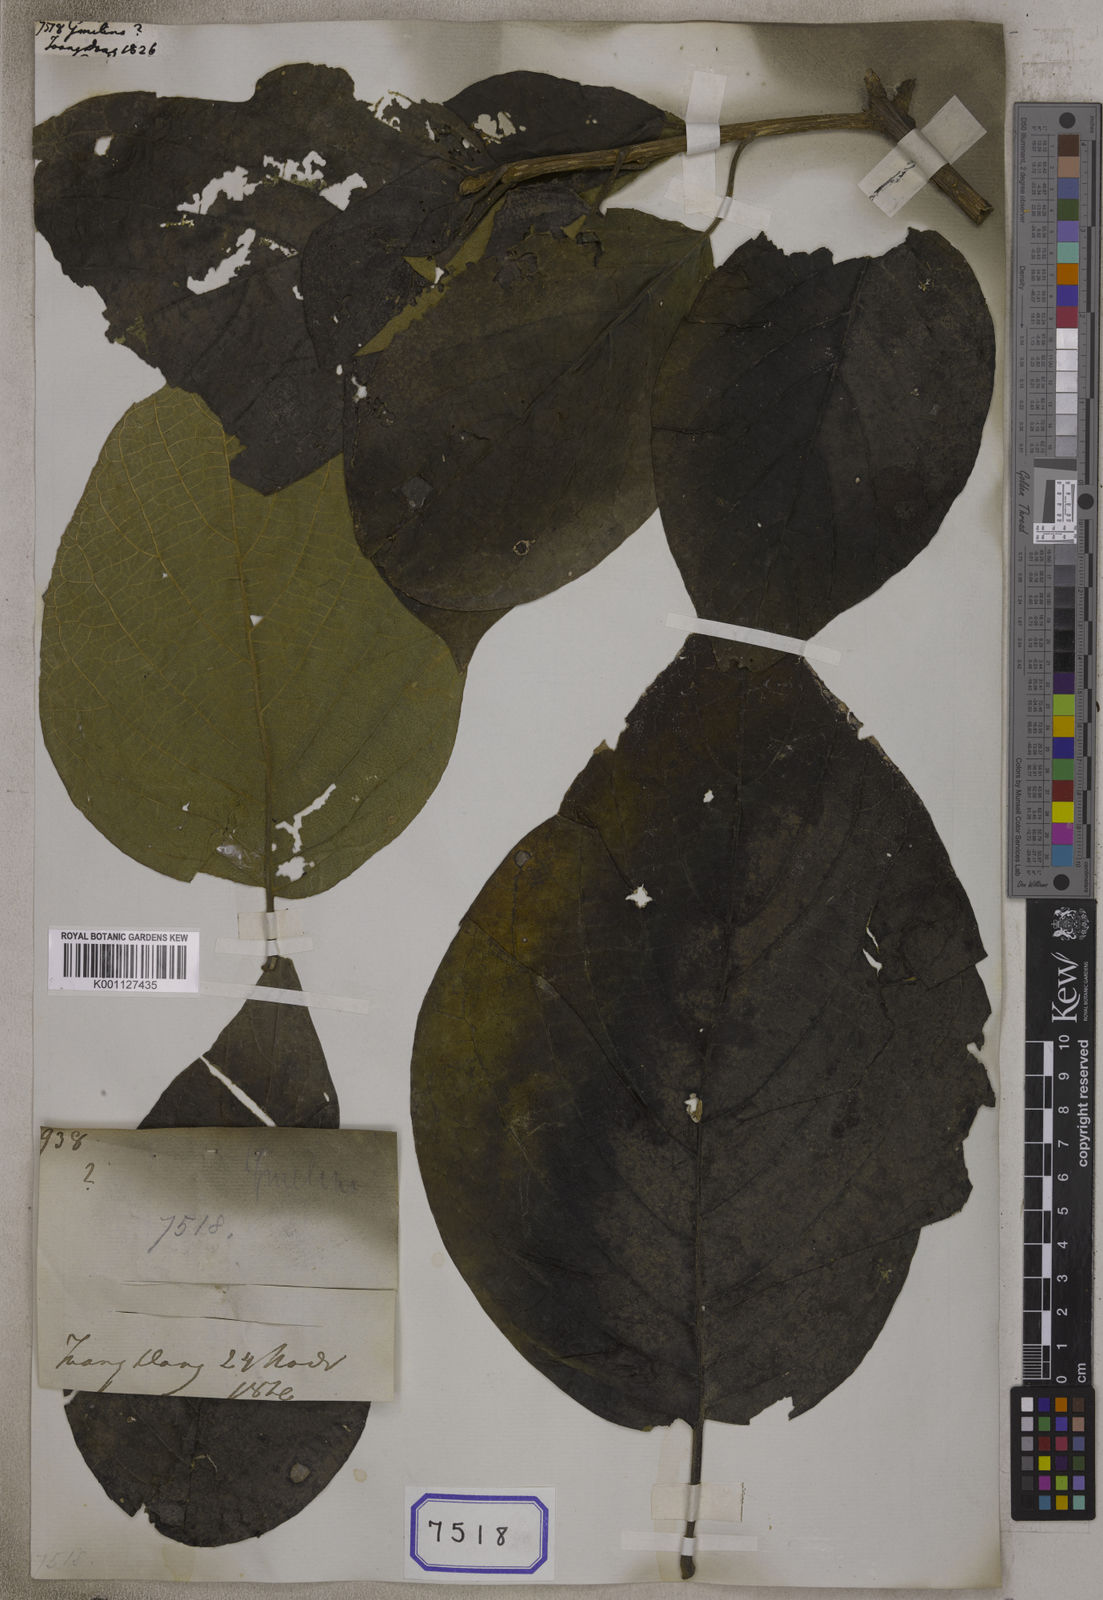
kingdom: Plantae
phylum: Tracheophyta
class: Magnoliopsida
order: Lamiales
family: Lamiaceae
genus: Gmelina
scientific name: Gmelina
